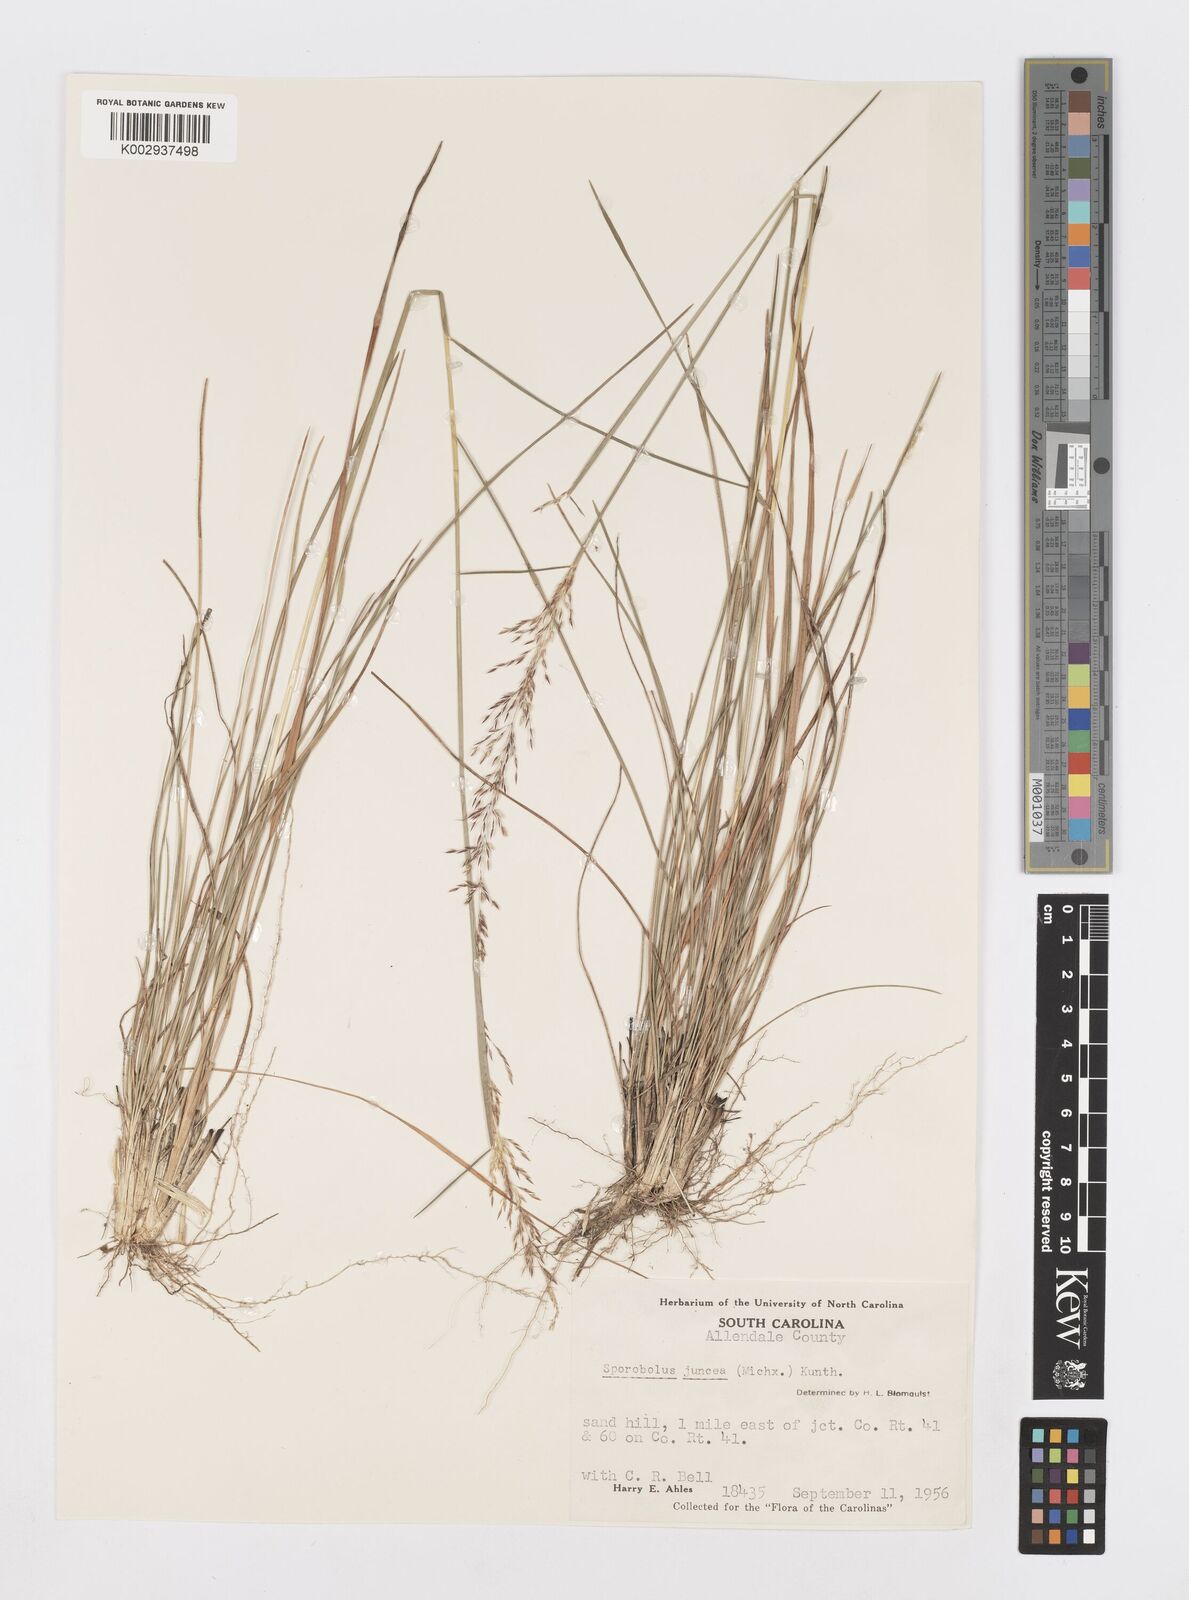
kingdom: Plantae
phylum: Tracheophyta
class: Liliopsida
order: Poales
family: Poaceae
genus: Sporobolus
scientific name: Sporobolus junceus
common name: Lizard grass
